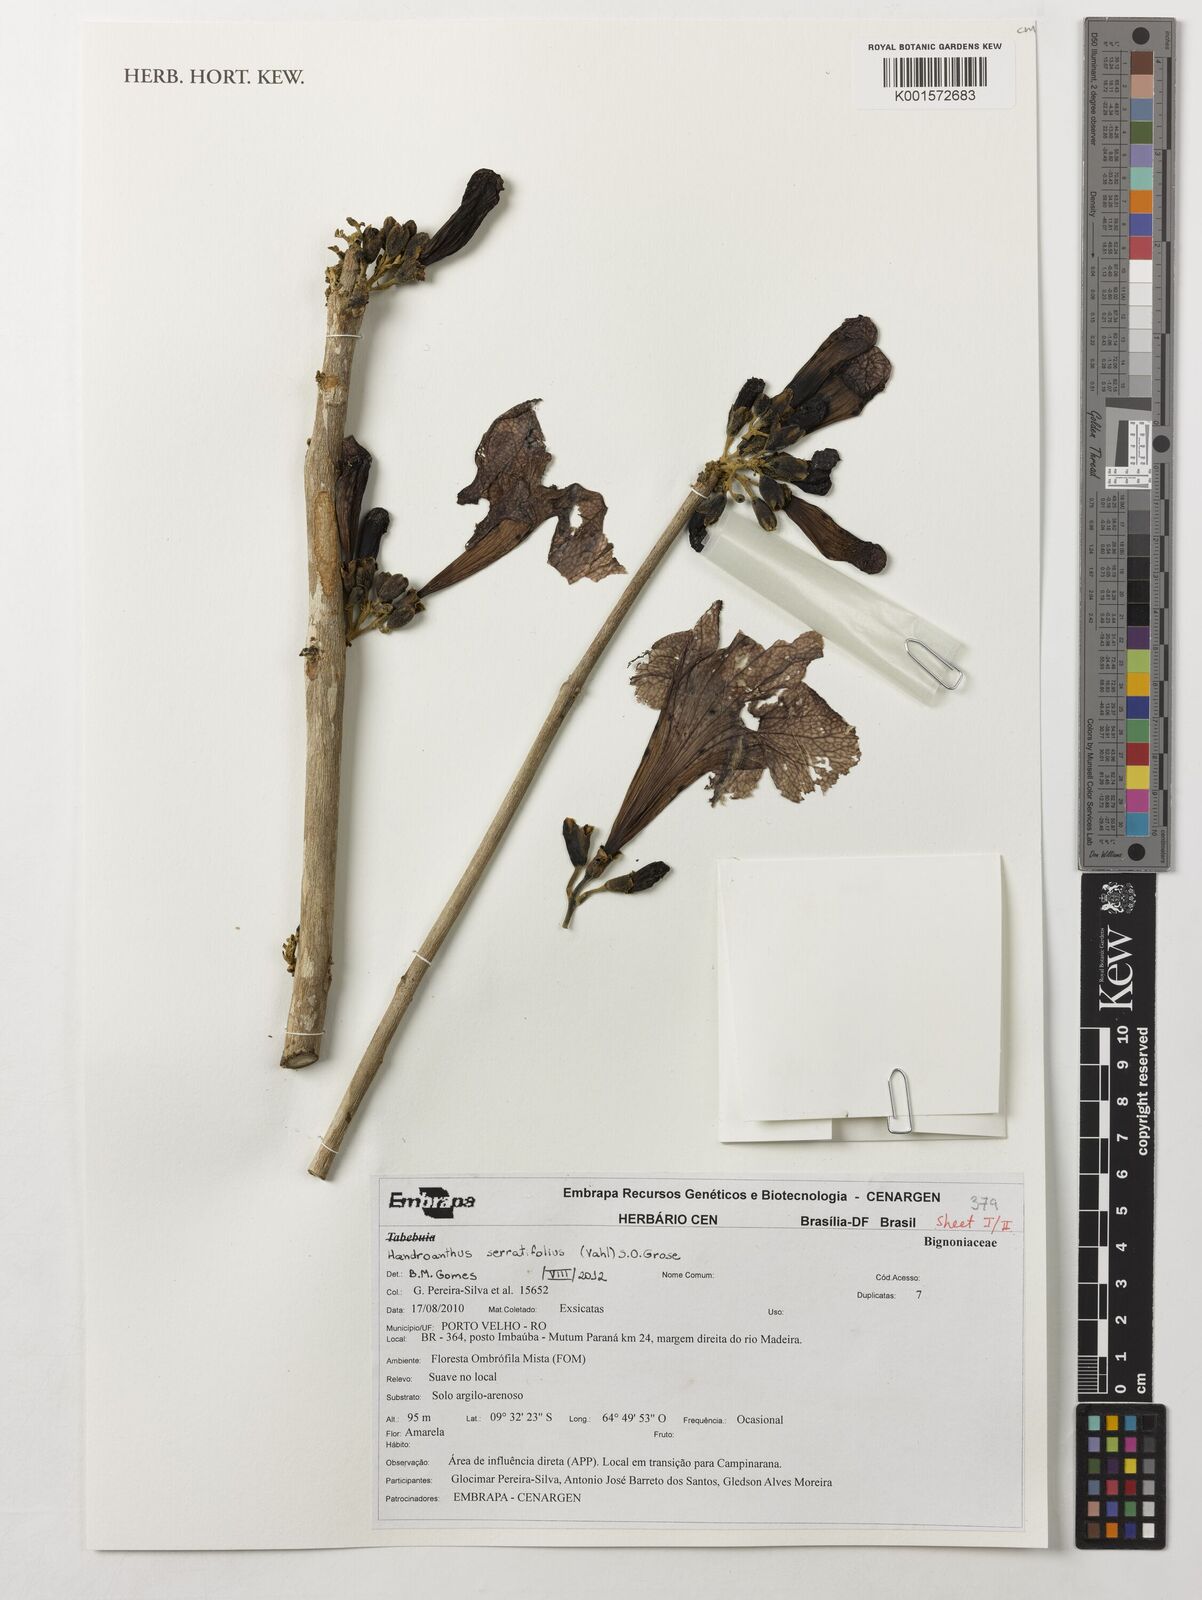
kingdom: Plantae
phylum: Tracheophyta
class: Magnoliopsida
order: Lamiales
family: Bignoniaceae
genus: Handroanthus
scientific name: Handroanthus serratifolius
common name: Yellow ipe
